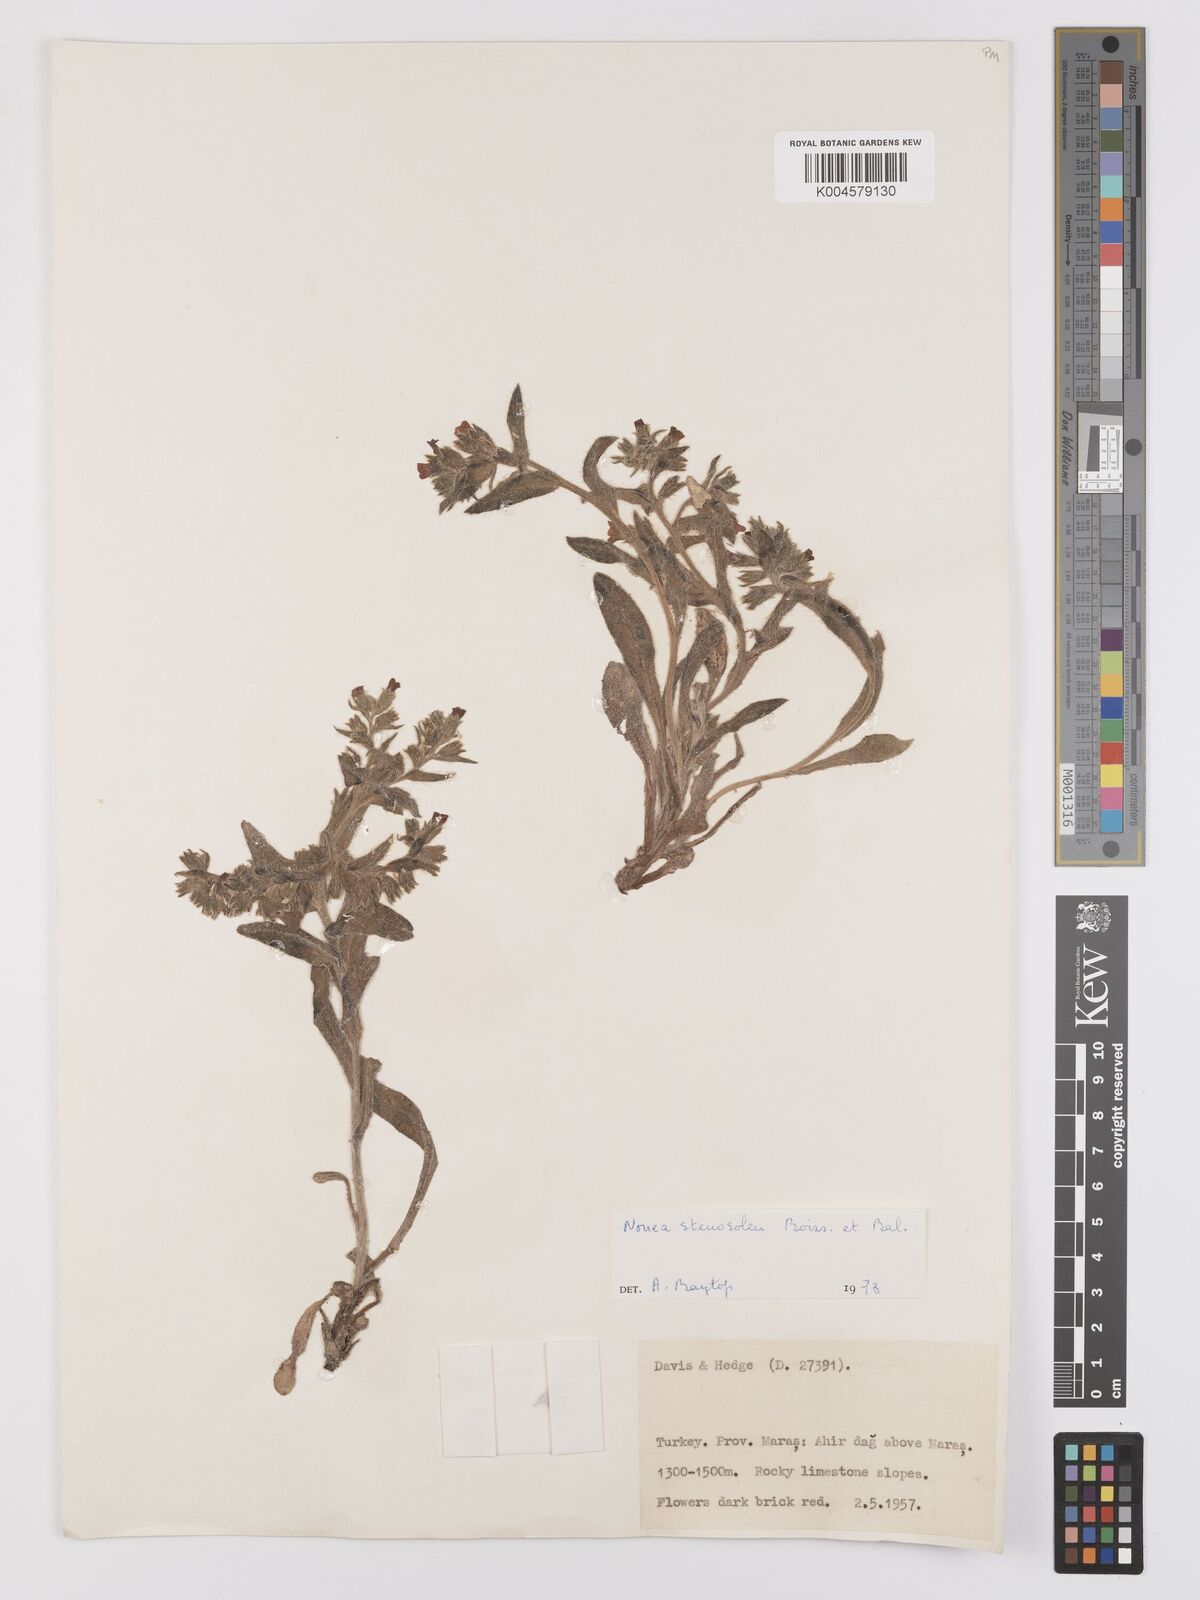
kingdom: Plantae
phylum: Tracheophyta
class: Magnoliopsida
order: Boraginales
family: Boraginaceae
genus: Nonea
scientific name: Nonea
